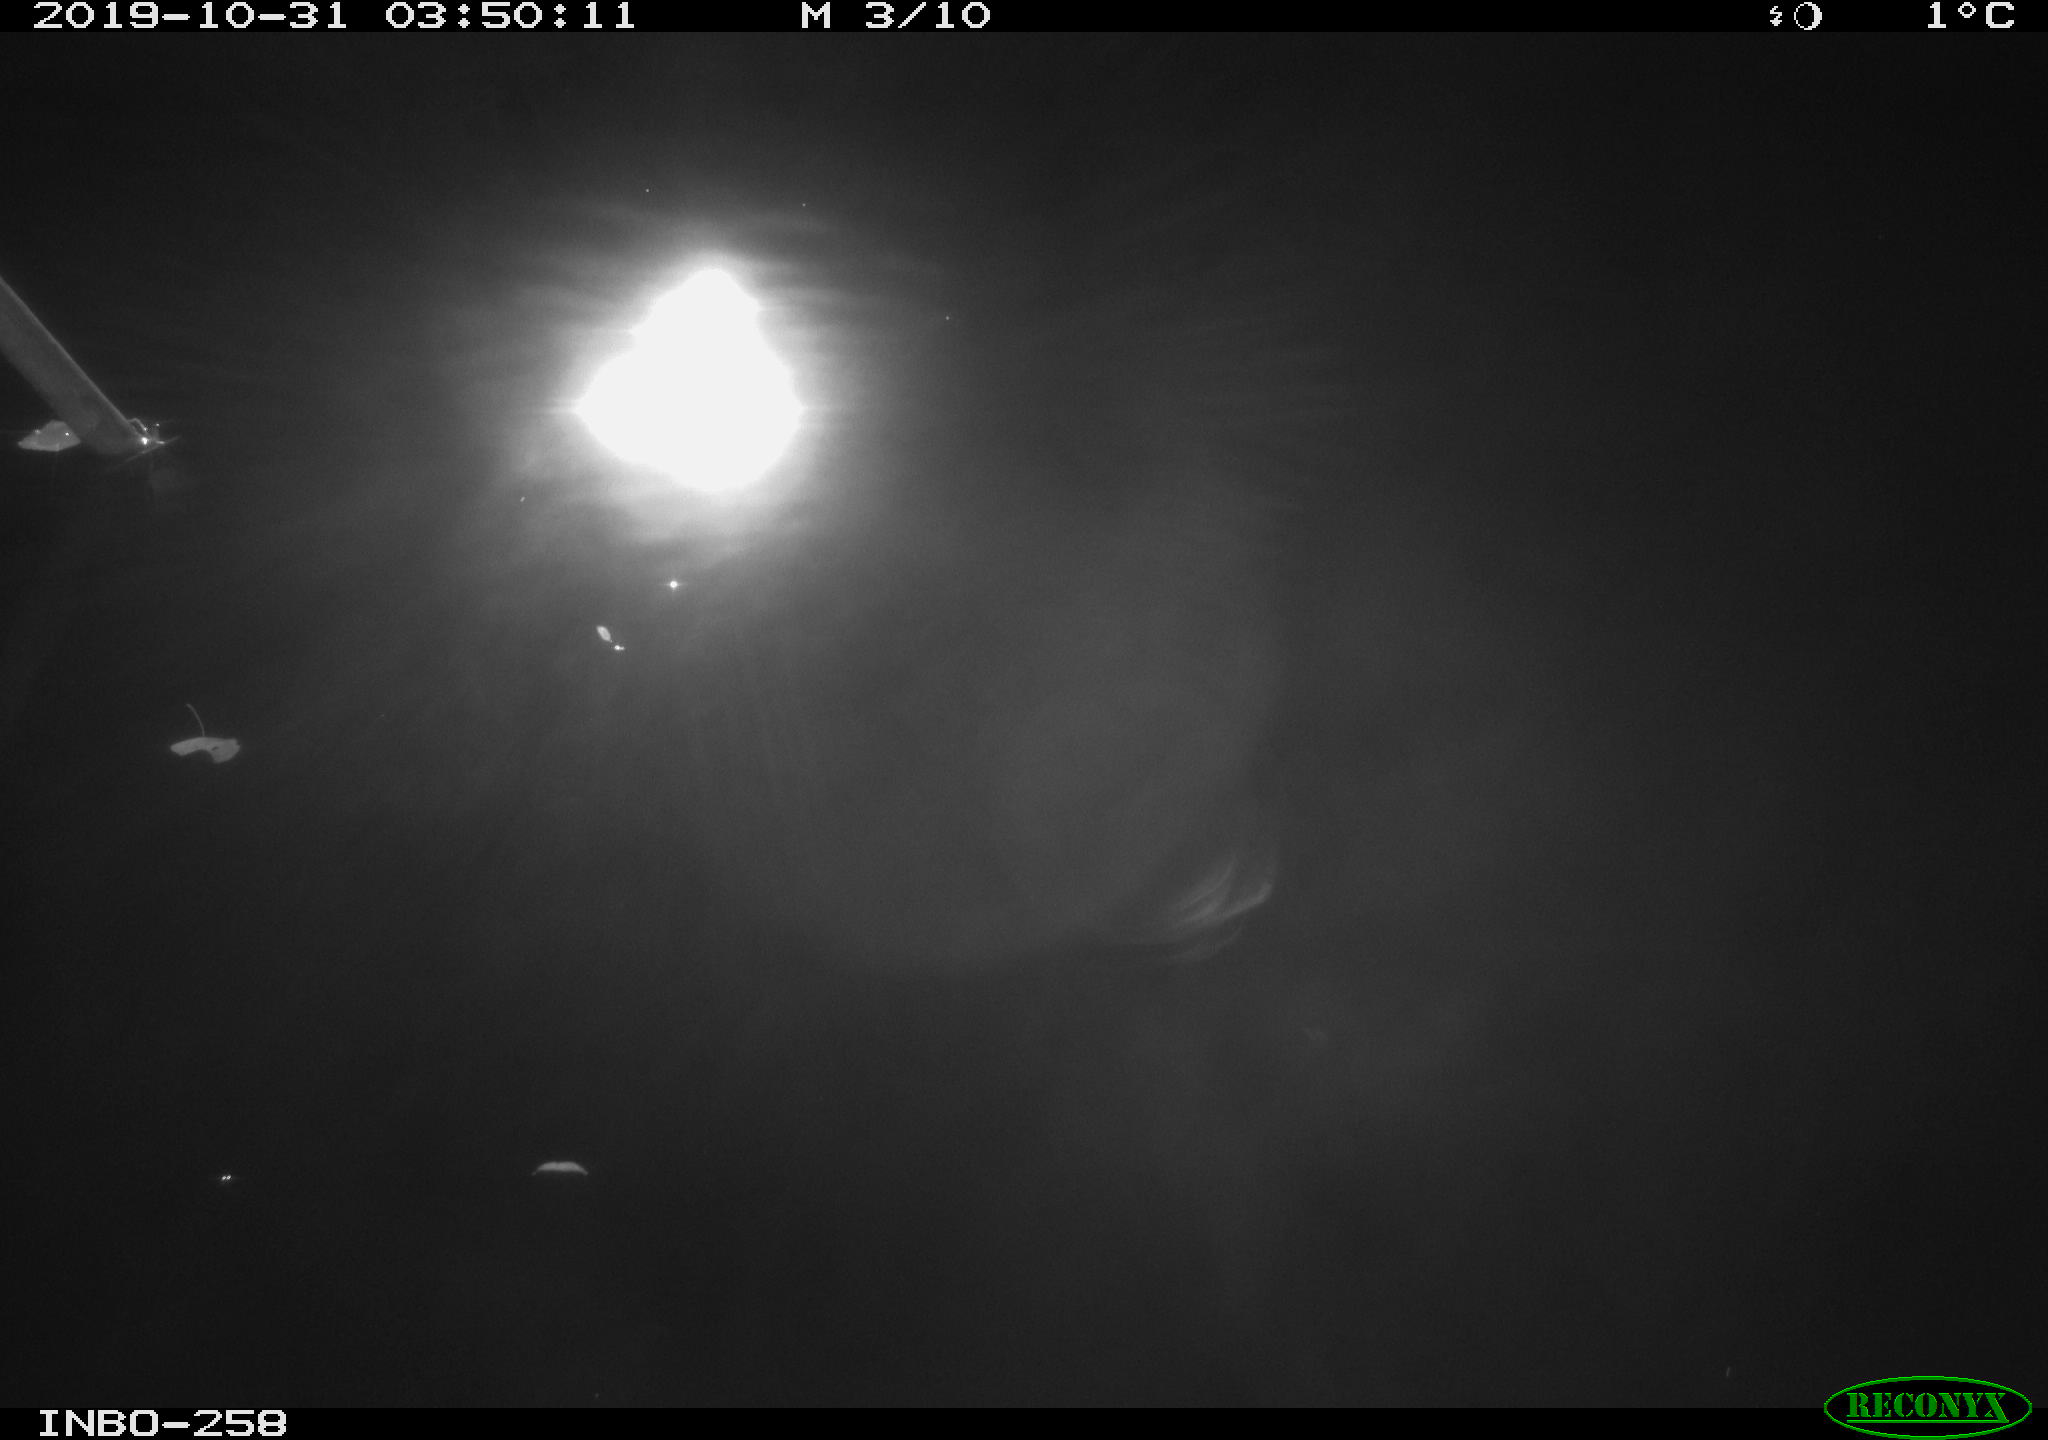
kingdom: Animalia
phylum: Chordata
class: Aves
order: Anseriformes
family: Anatidae
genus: Anas
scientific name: Anas platyrhynchos
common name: Mallard
